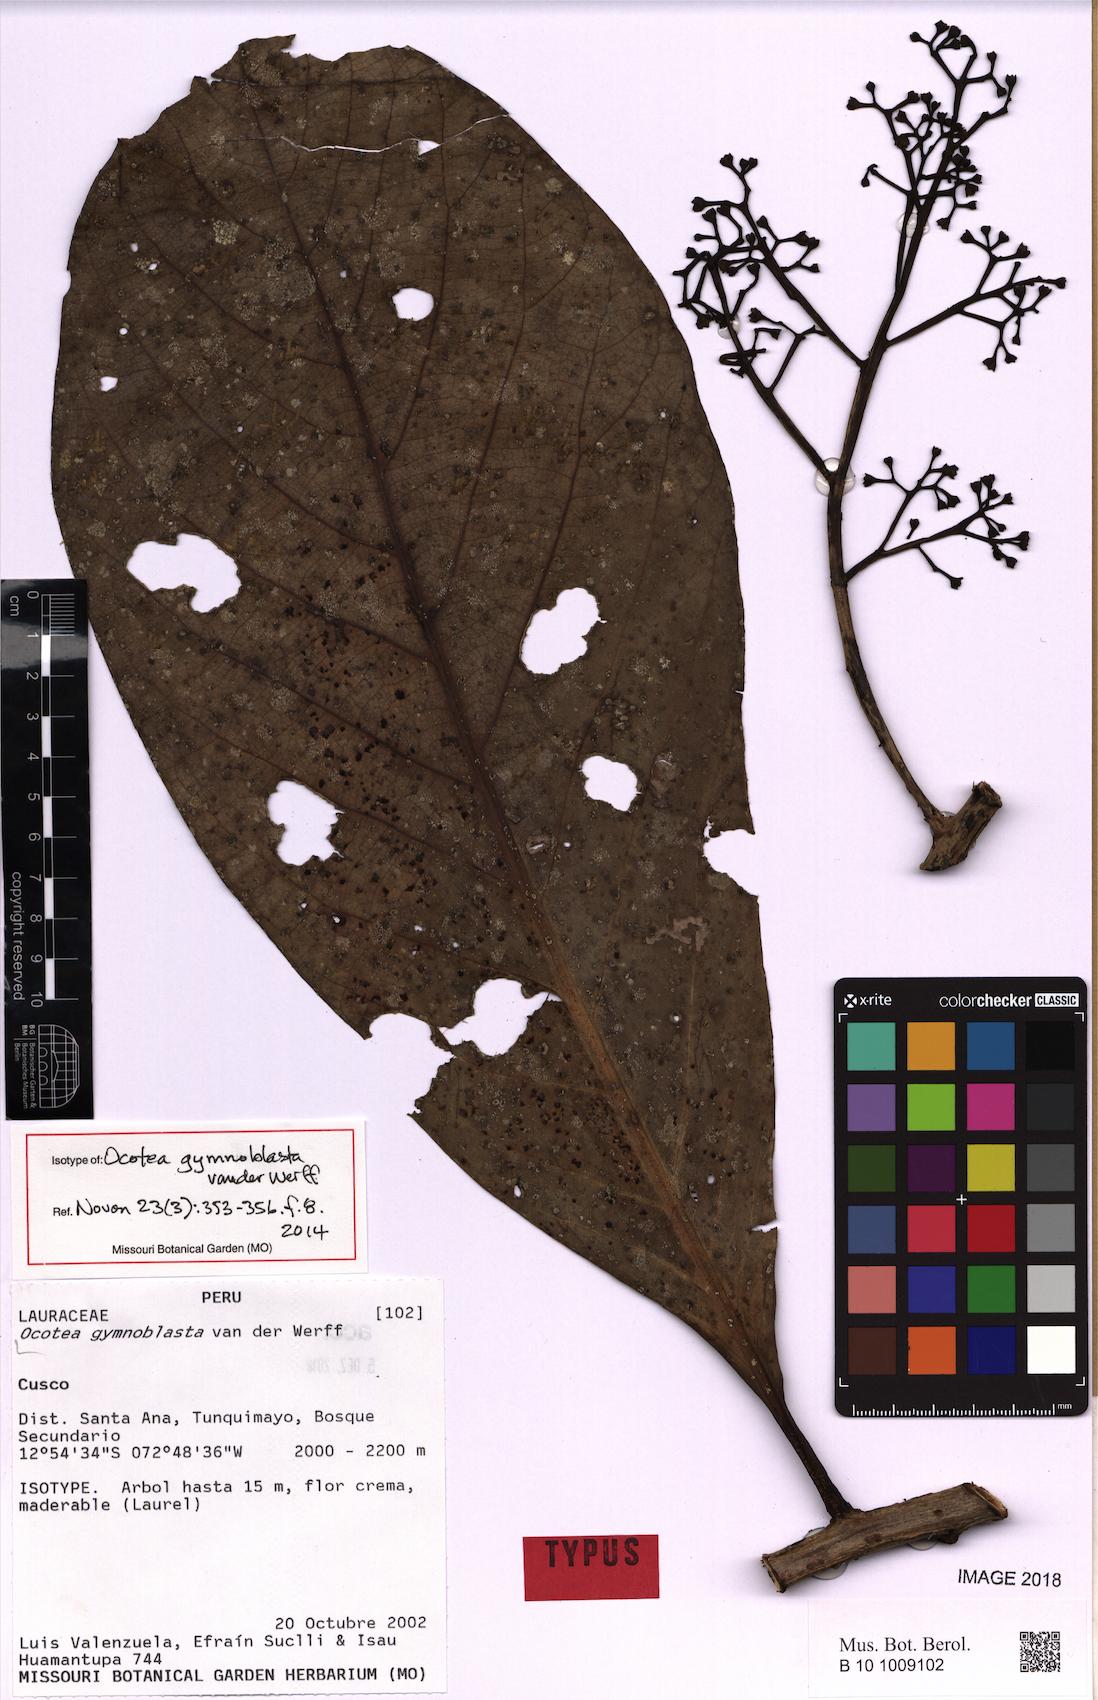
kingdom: Plantae
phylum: Tracheophyta
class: Magnoliopsida
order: Laurales
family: Lauraceae
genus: Ocotea
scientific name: Ocotea gymnoblasta
